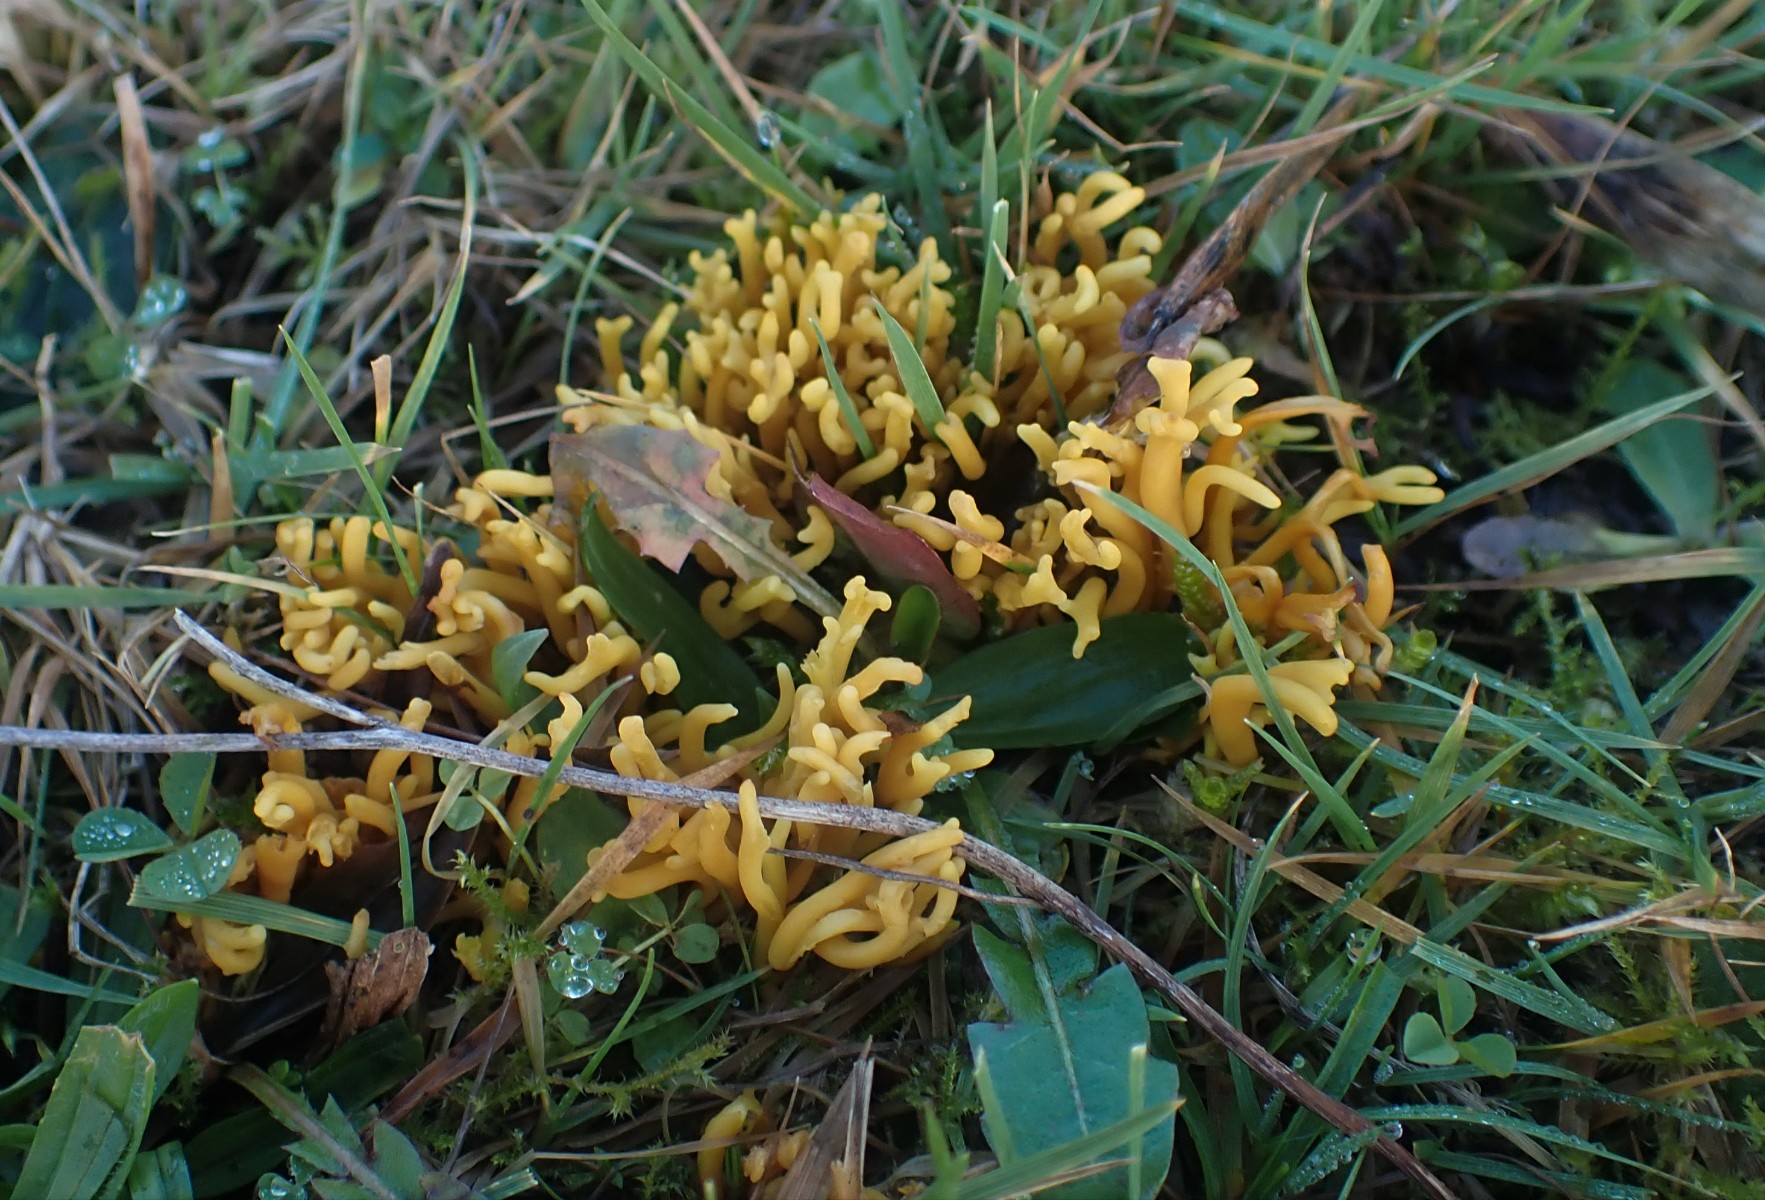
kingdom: Fungi
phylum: Basidiomycota
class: Agaricomycetes
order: Agaricales
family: Clavariaceae
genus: Clavulinopsis
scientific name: Clavulinopsis corniculata
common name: eng-køllesvamp
